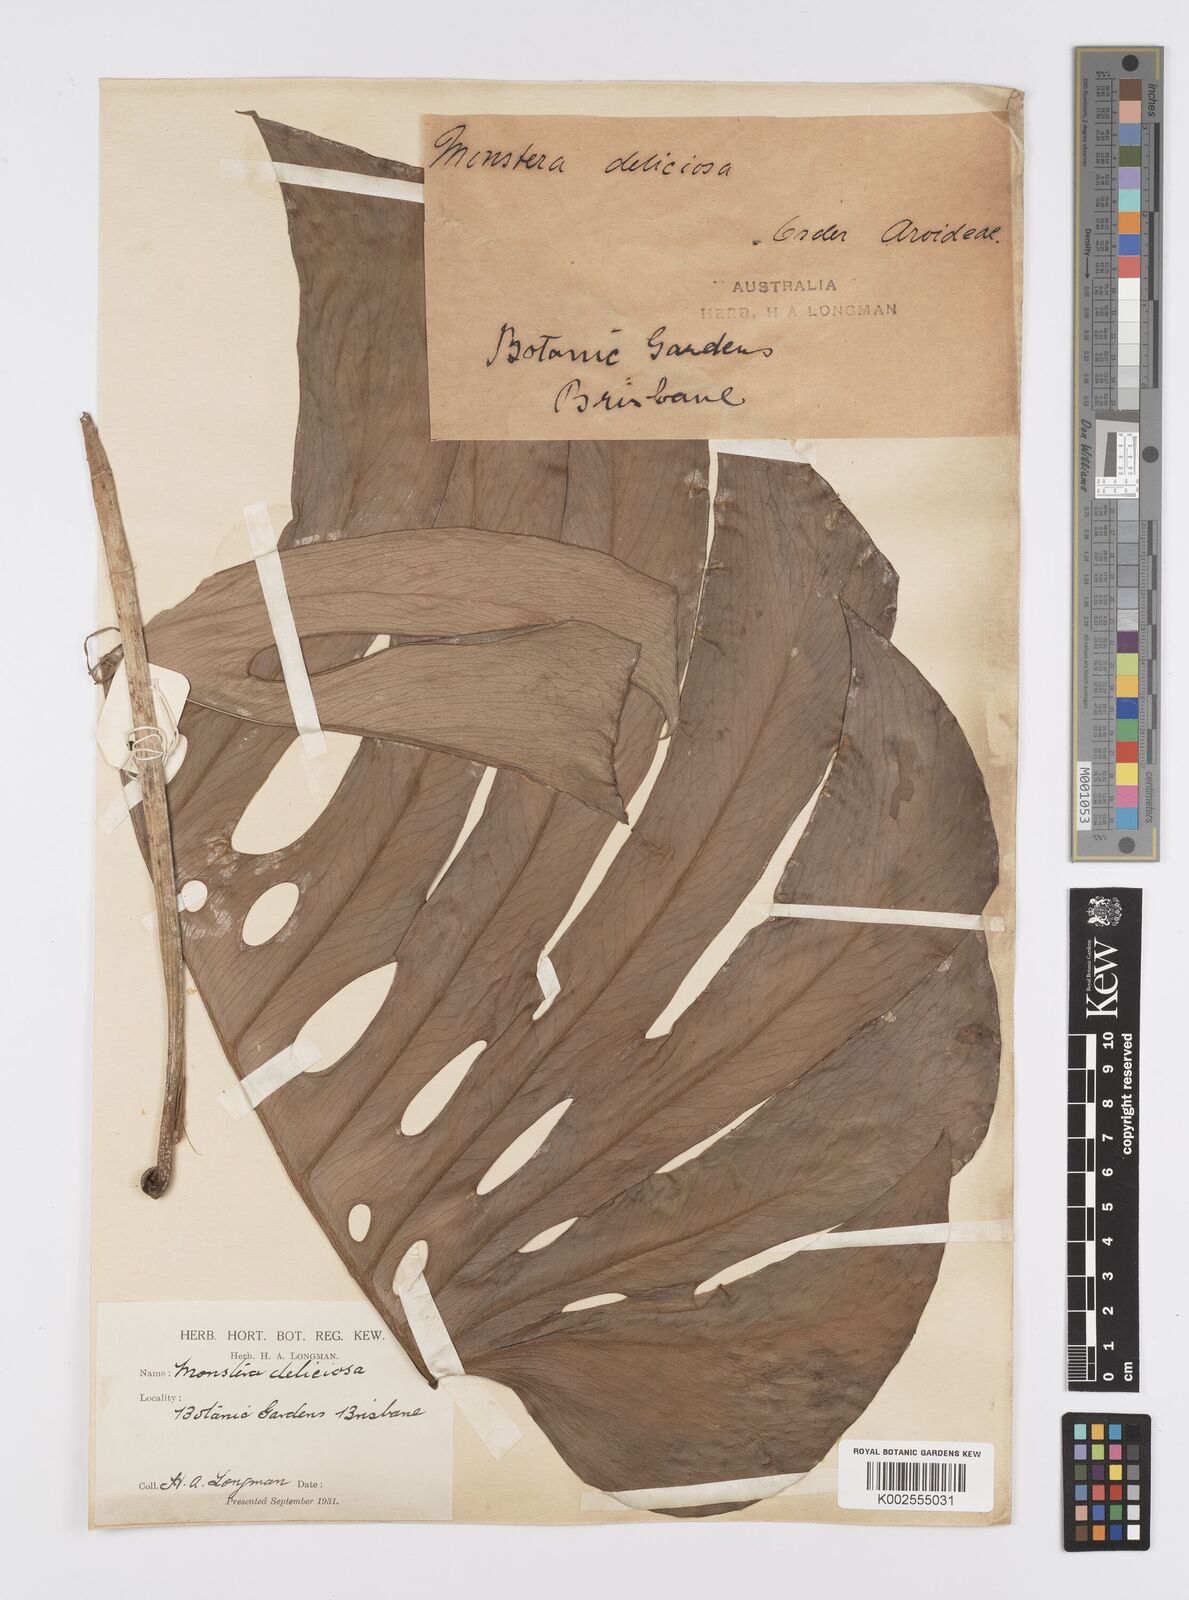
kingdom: Plantae
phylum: Tracheophyta
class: Liliopsida
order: Alismatales
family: Araceae
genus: Monstera
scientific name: Monstera deliciosa
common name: Cut-leaf-philodendron
